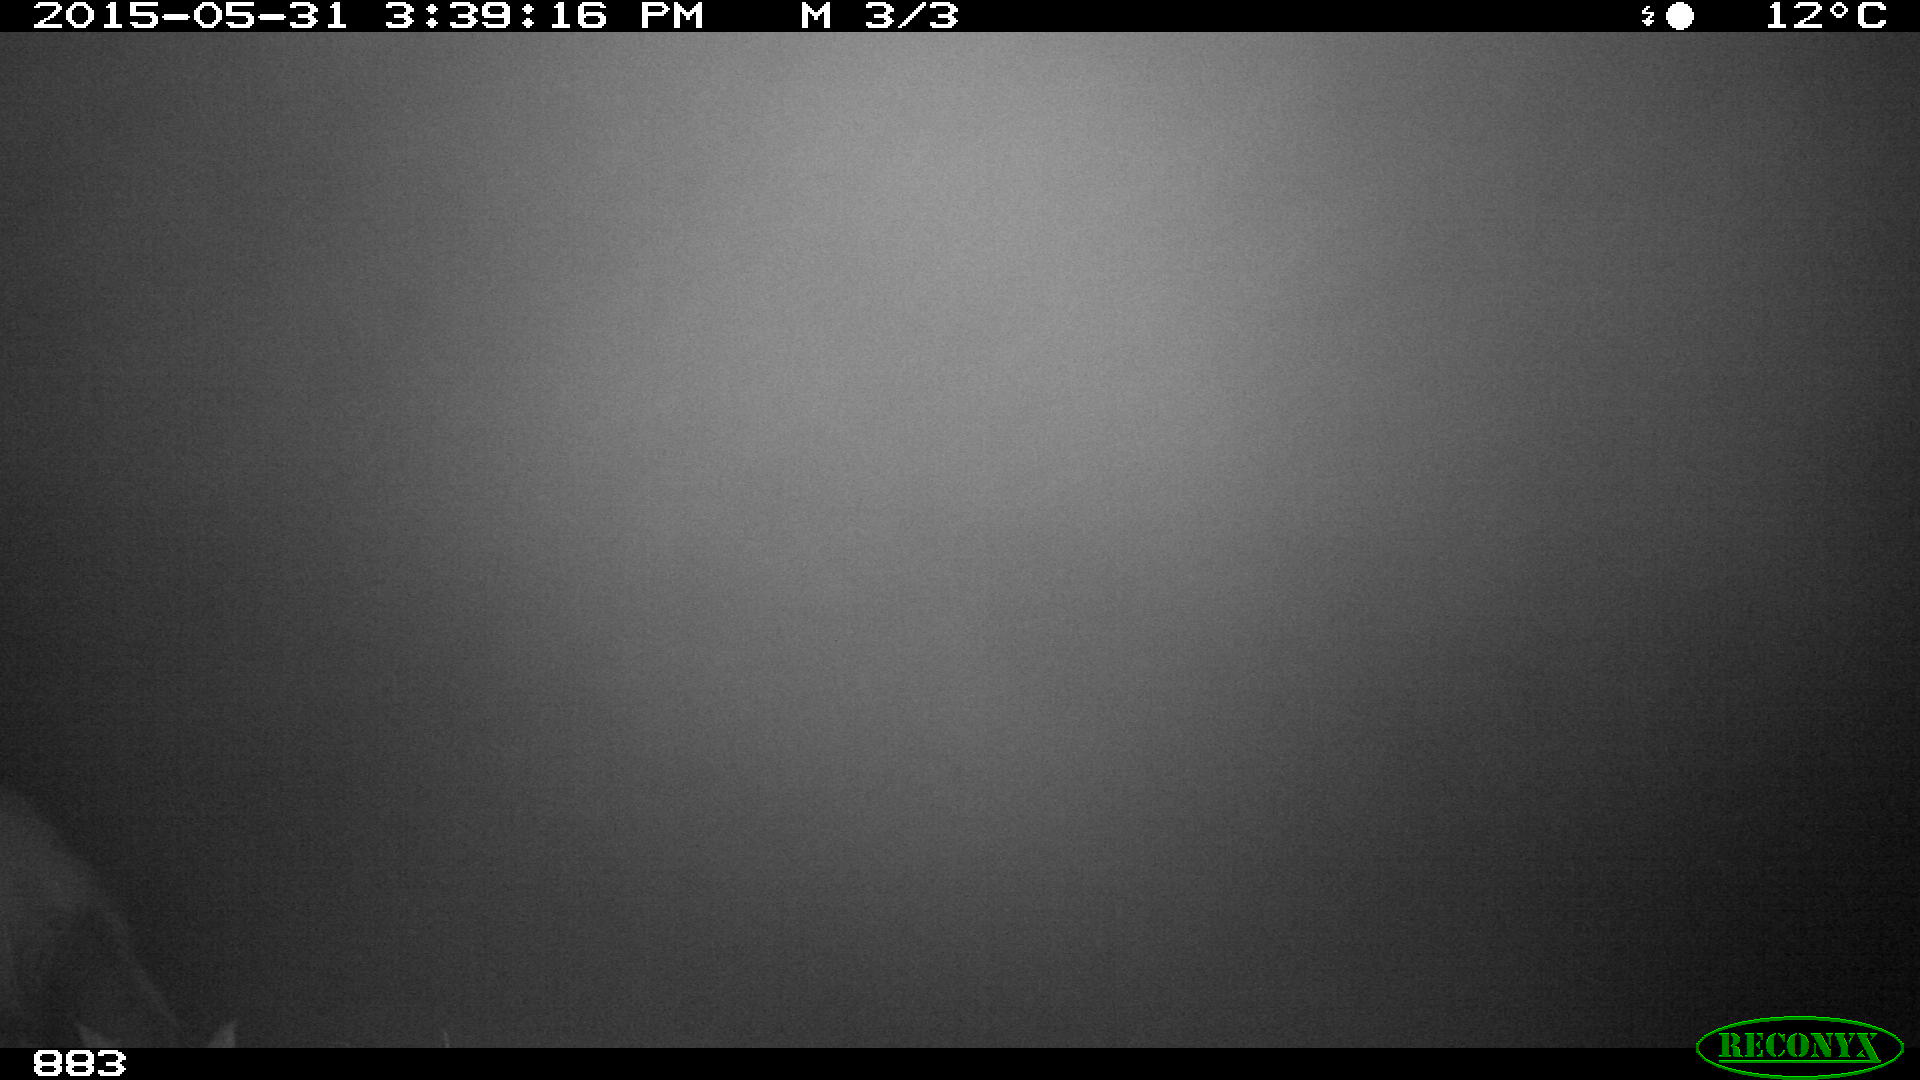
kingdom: Animalia
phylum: Chordata
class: Mammalia
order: Perissodactyla
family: Equidae
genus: Equus
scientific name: Equus caballus
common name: Horse
